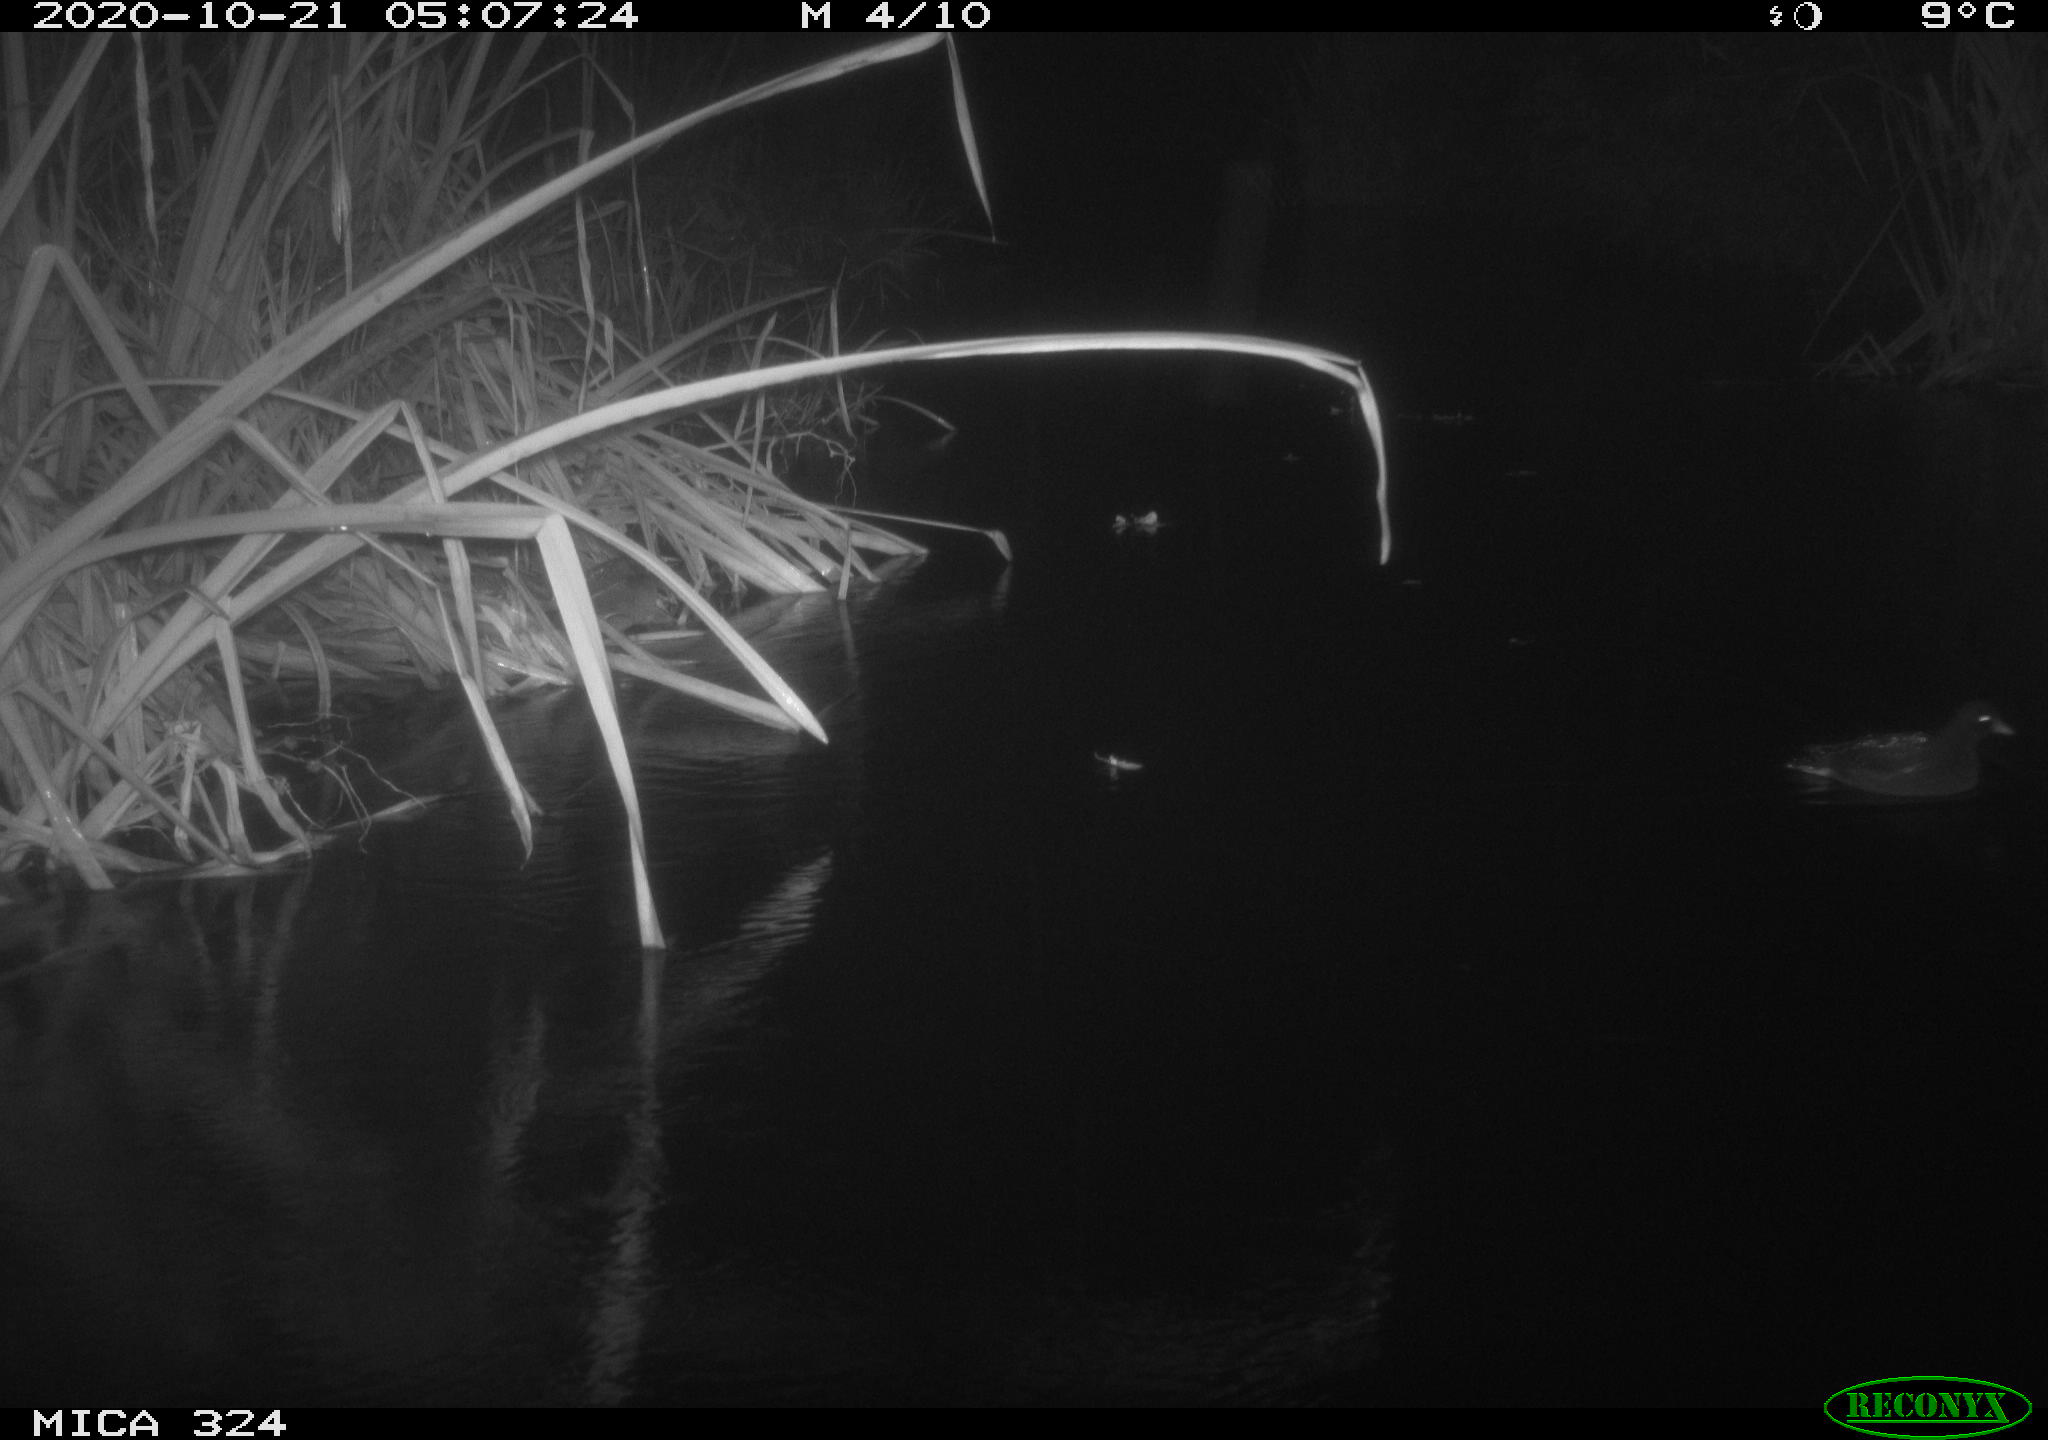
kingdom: Animalia
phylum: Chordata
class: Aves
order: Gruiformes
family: Rallidae
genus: Gallinula
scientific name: Gallinula chloropus
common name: Common moorhen
